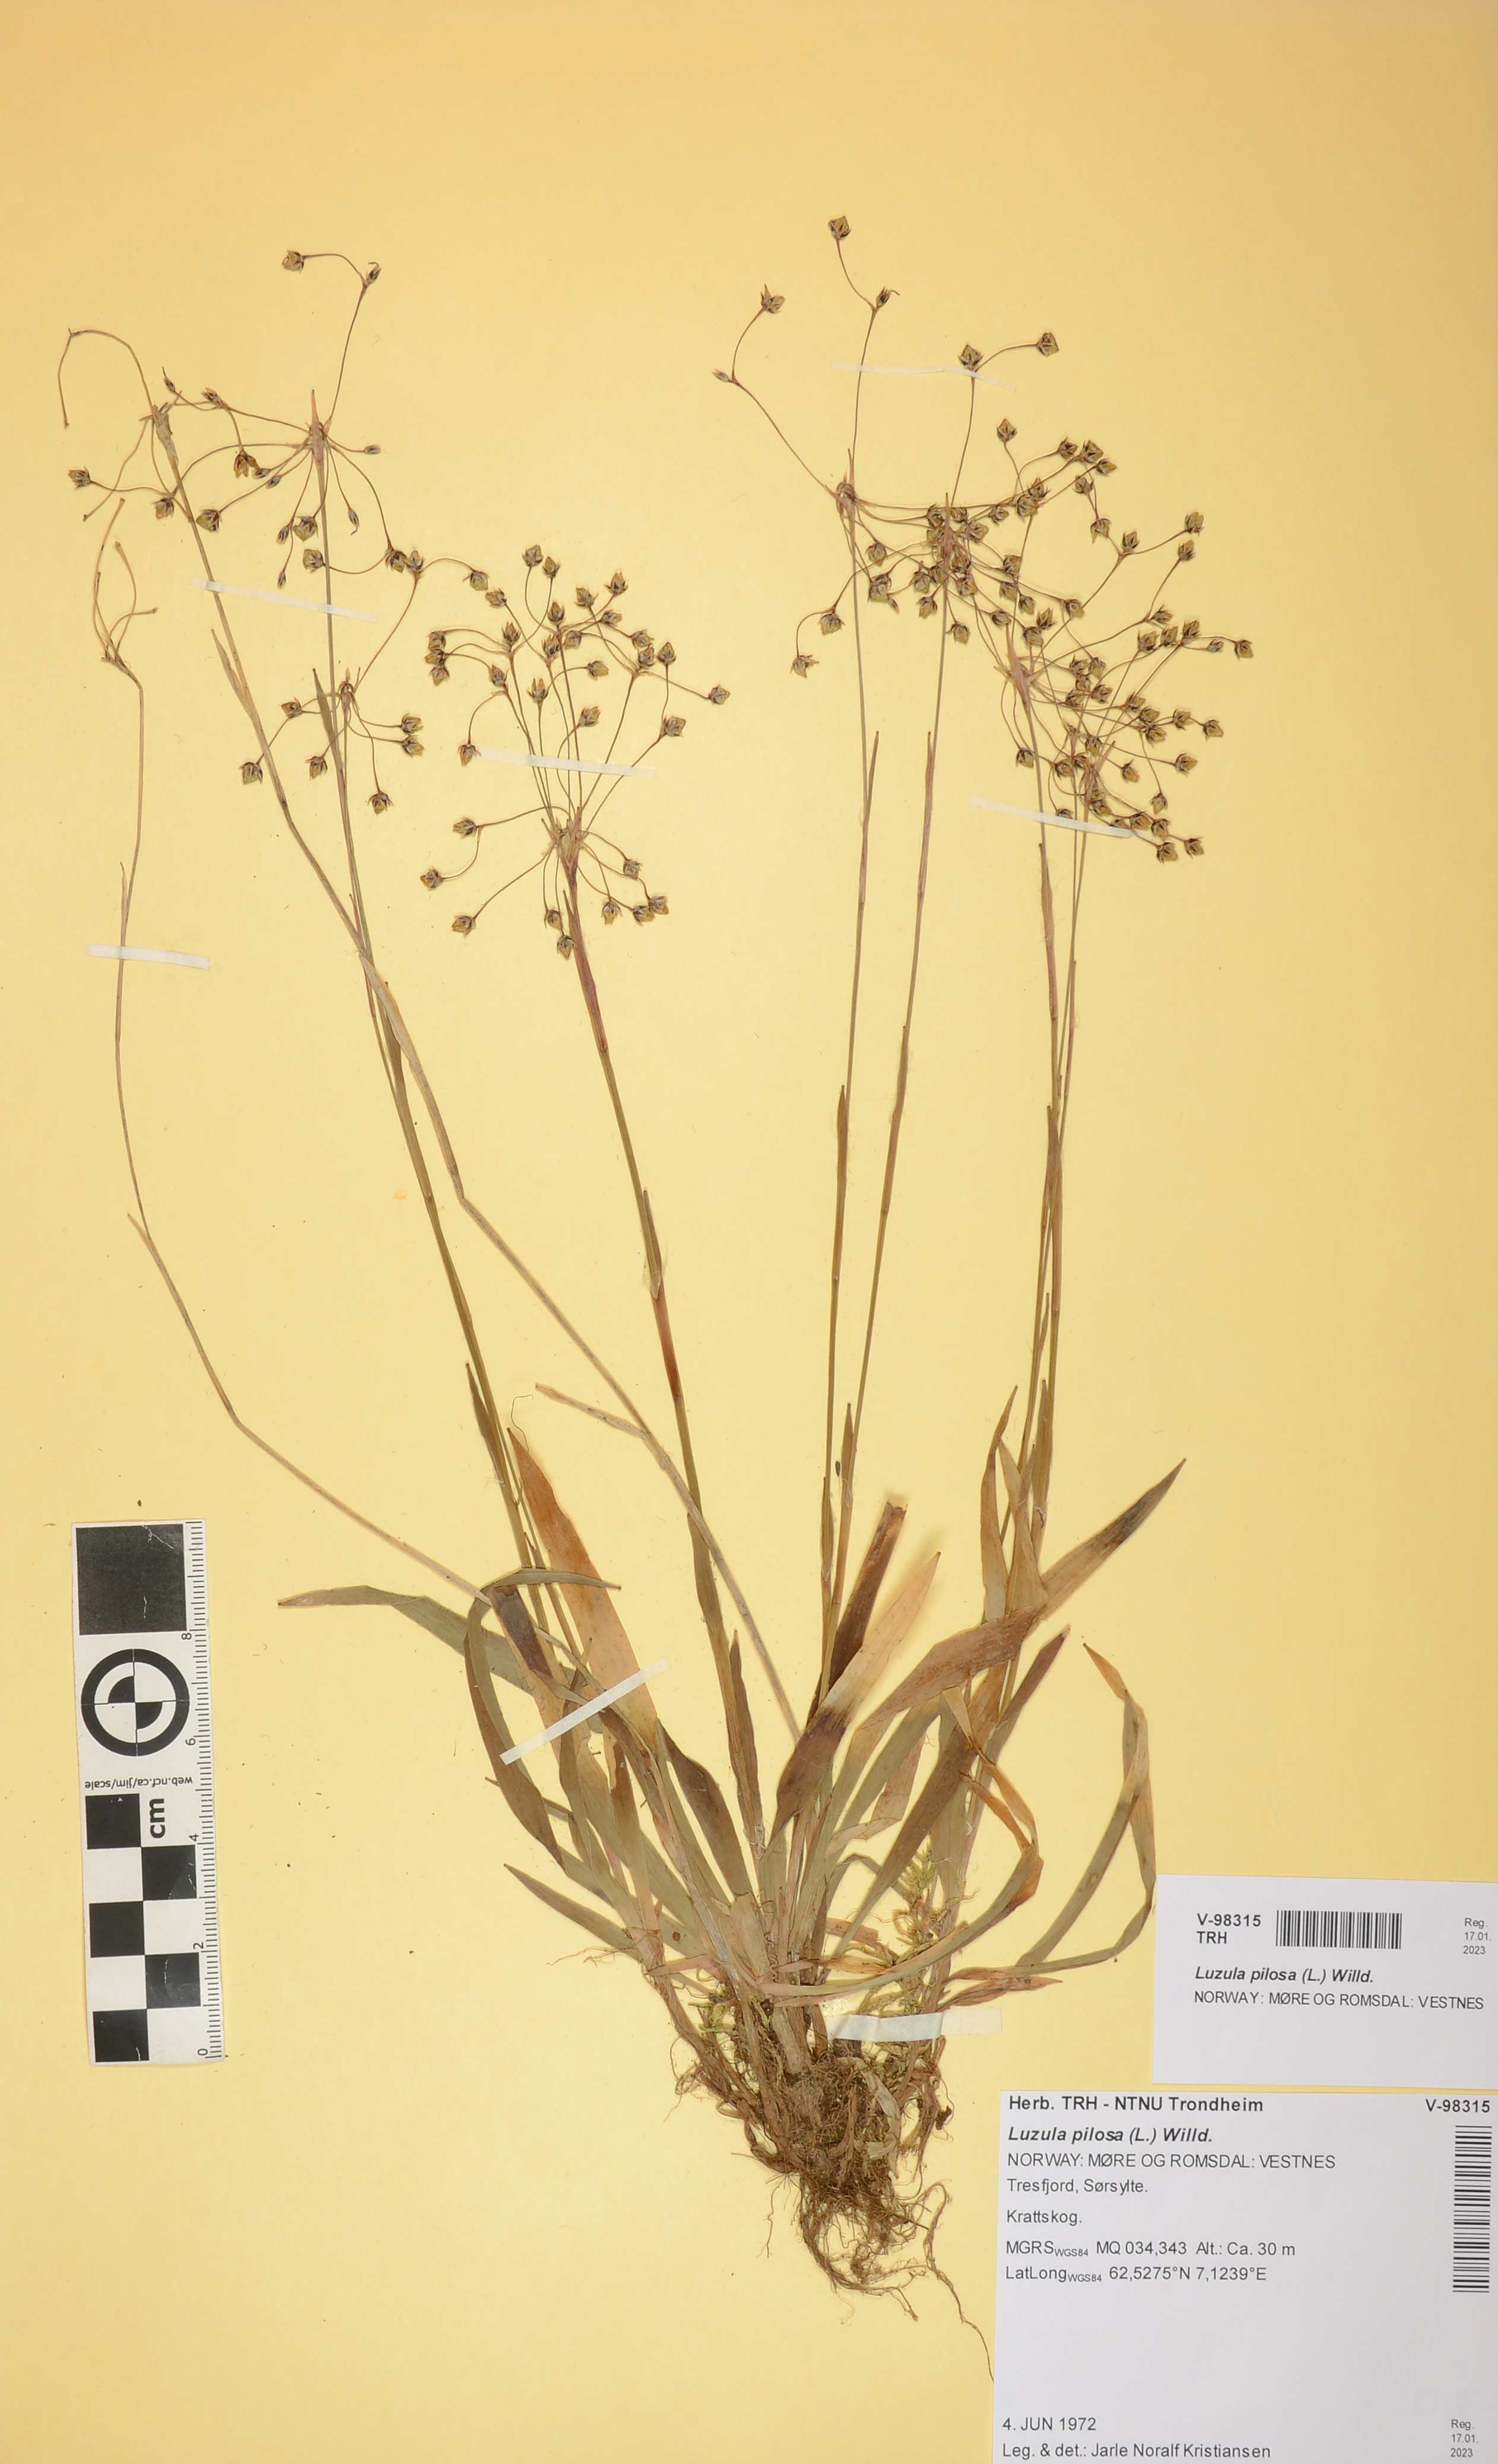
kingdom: Plantae
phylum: Tracheophyta
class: Liliopsida
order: Poales
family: Juncaceae
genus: Luzula
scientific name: Luzula pilosa
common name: Hairy wood-rush
